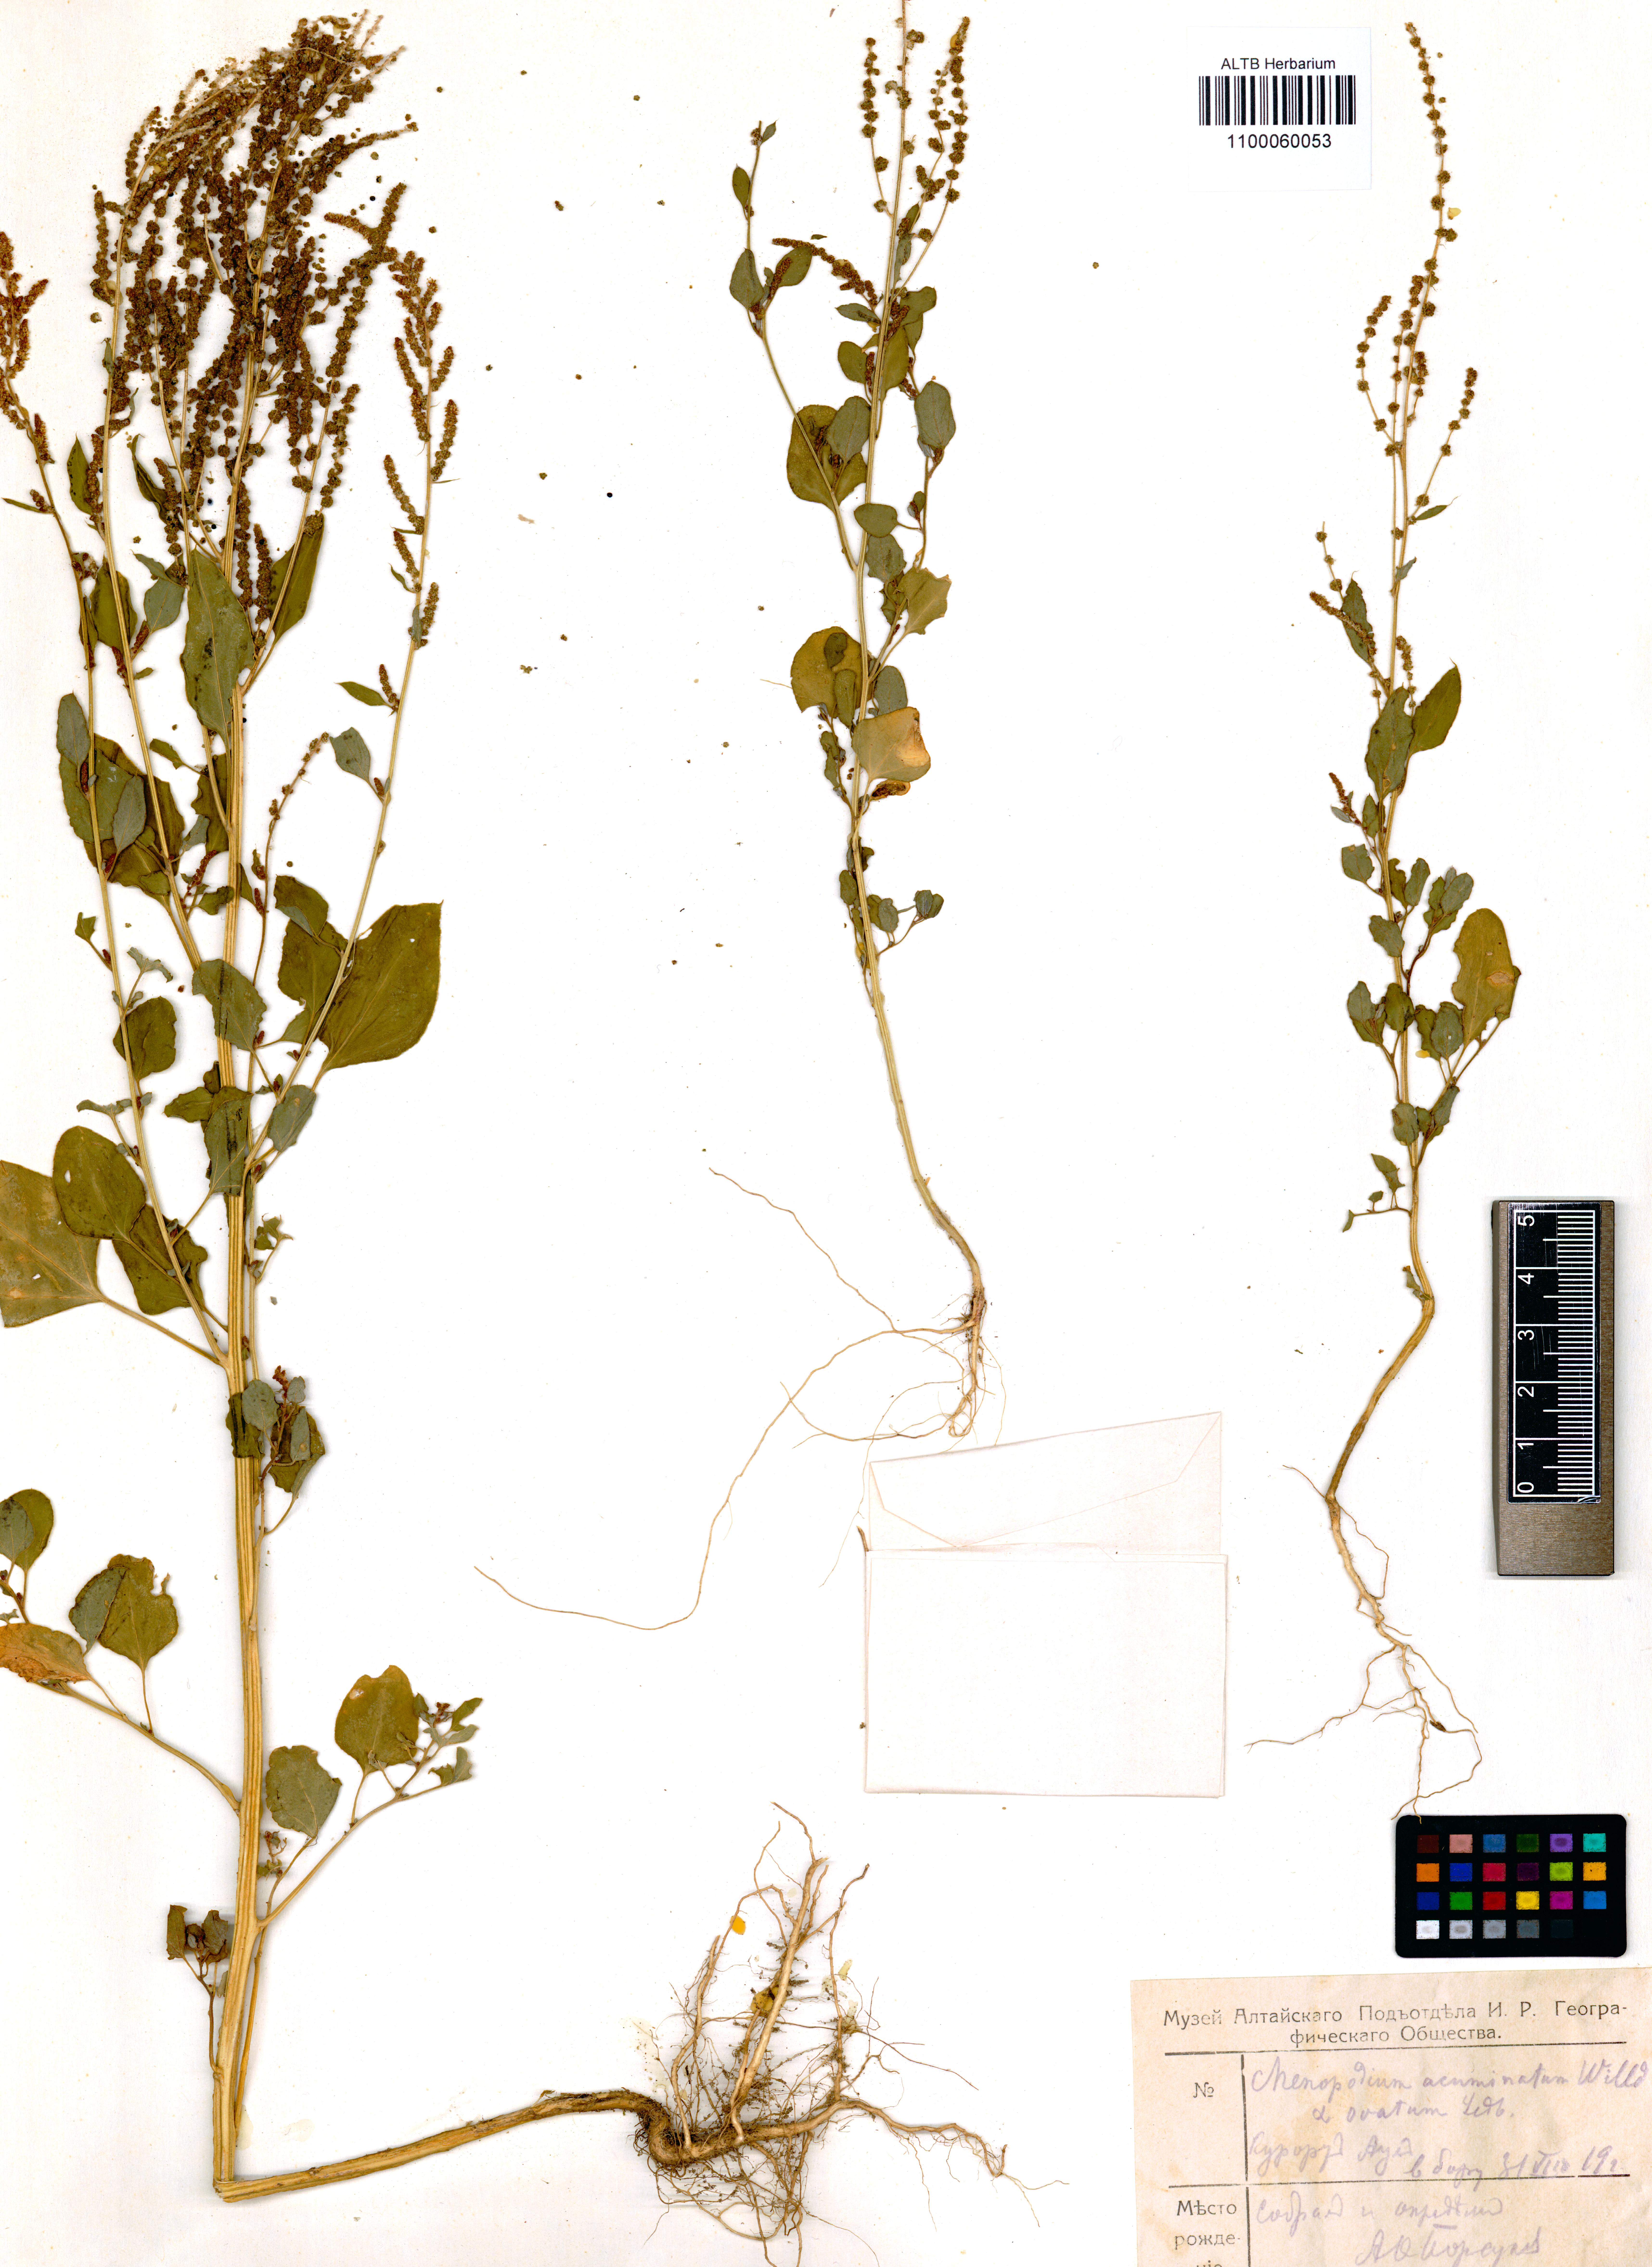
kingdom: Plantae
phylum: Tracheophyta
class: Magnoliopsida
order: Caryophyllales
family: Amaranthaceae
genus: Chenopodium
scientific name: Chenopodium acuminatum
